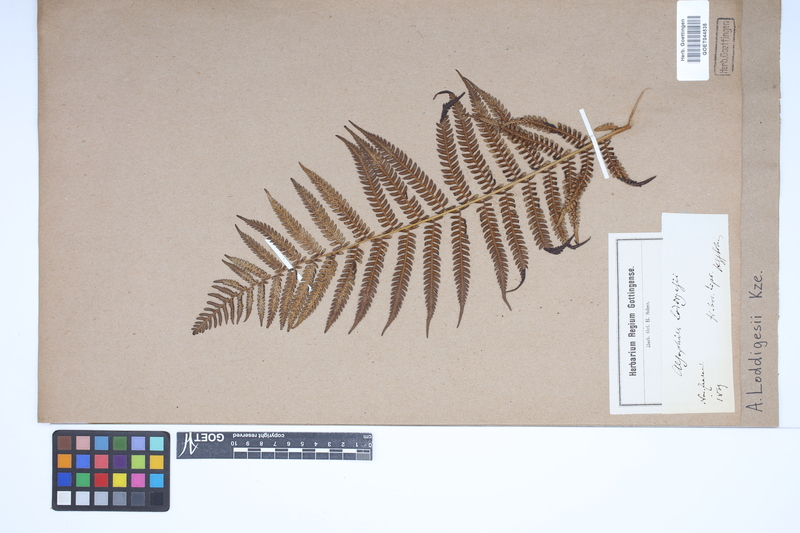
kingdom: Plantae
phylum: Tracheophyta
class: Polypodiopsida
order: Cyatheales
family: Cyatheaceae
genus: Alsophila
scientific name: Alsophila australis
